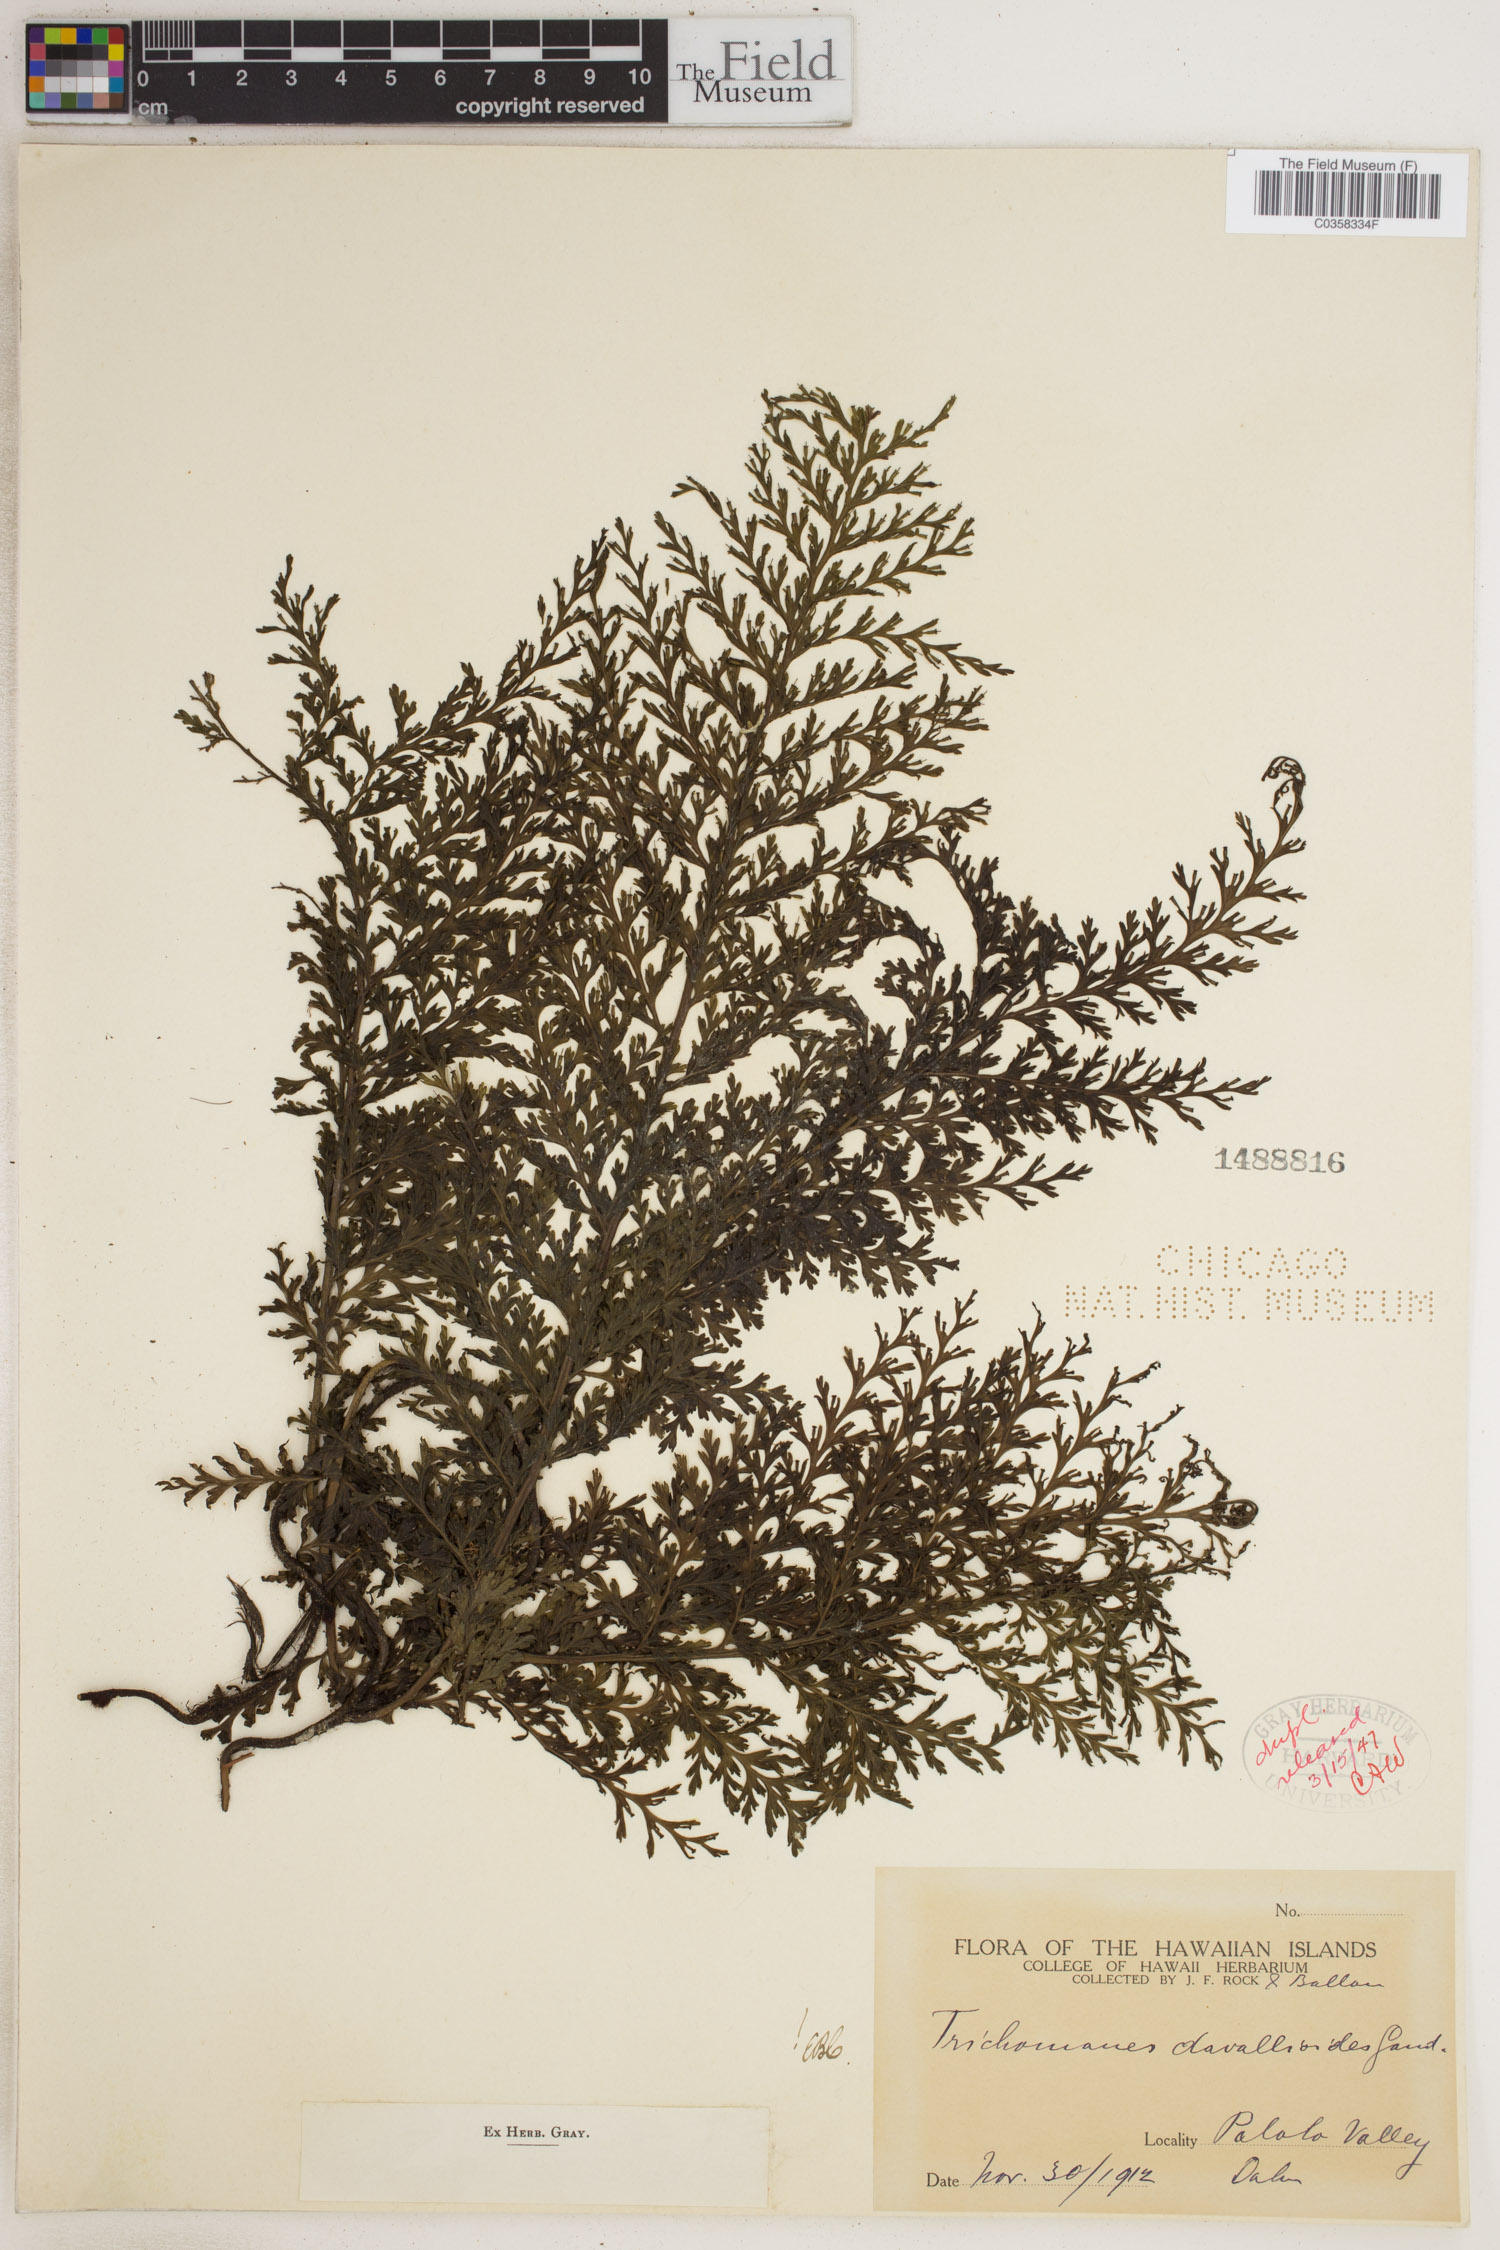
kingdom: Plantae
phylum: Tracheophyta
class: Polypodiopsida
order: Hymenophyllales
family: Hymenophyllaceae
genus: Vandenboschia
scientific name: Vandenboschia davallioides
